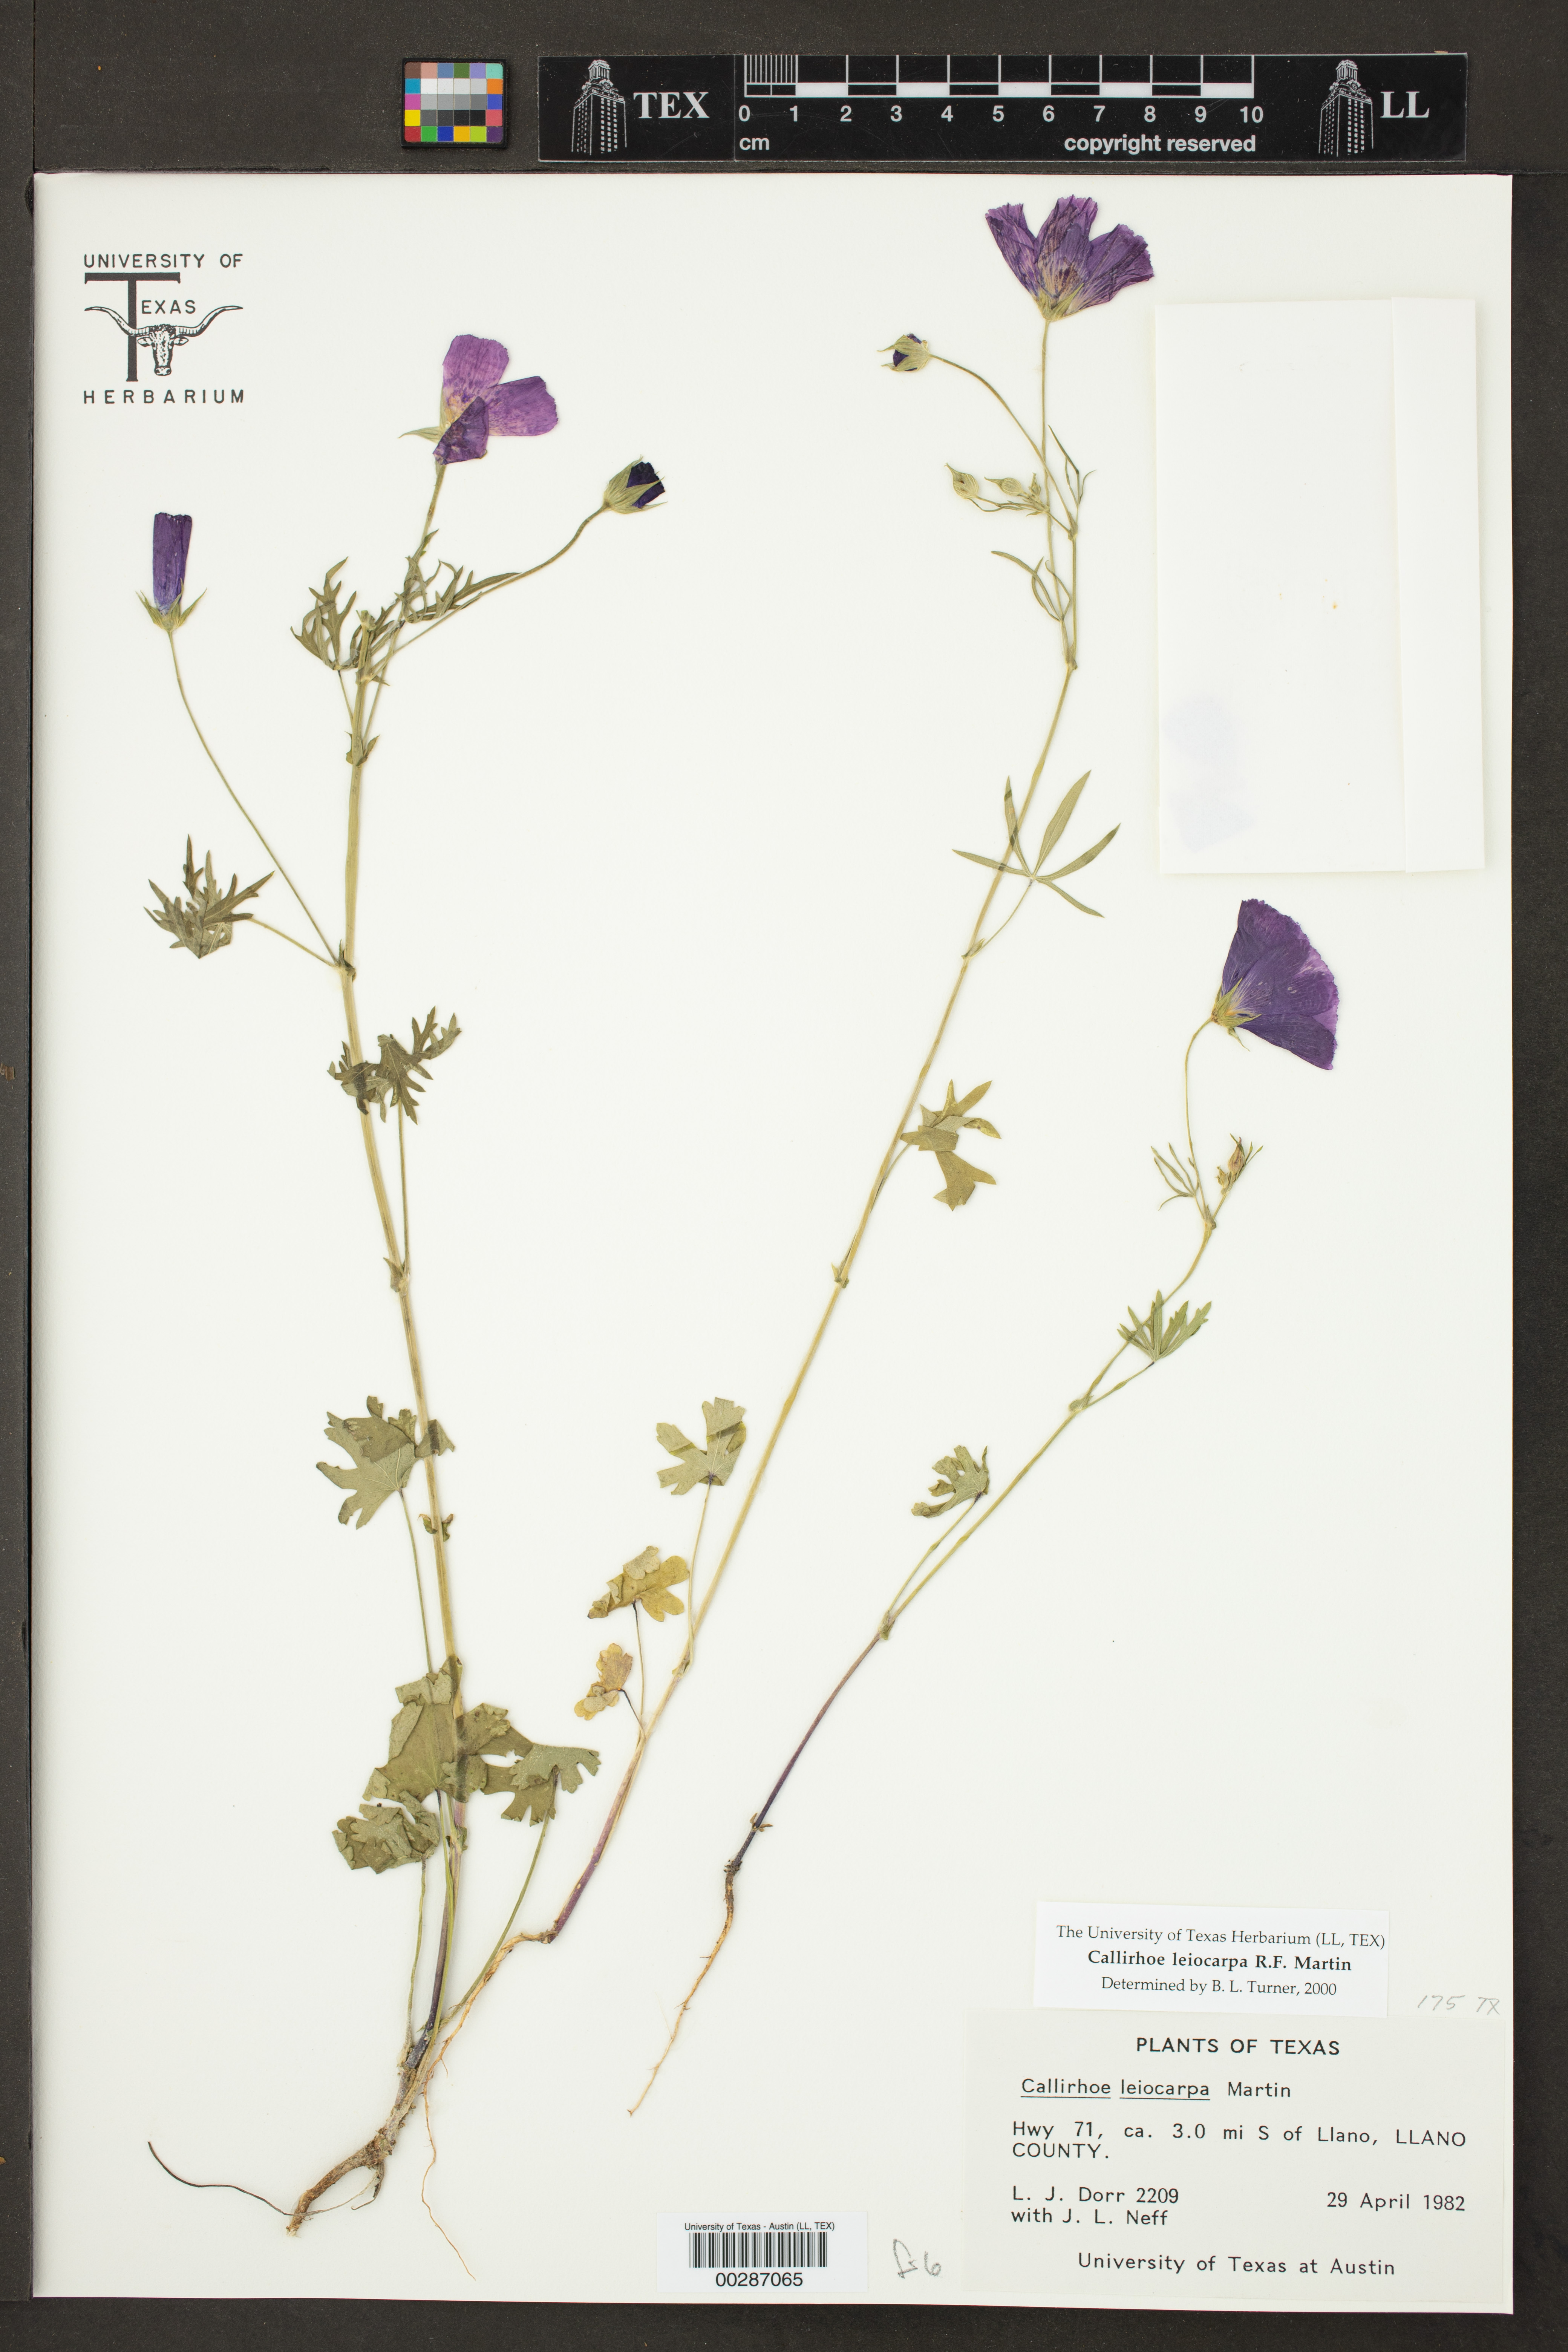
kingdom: Plantae
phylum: Tracheophyta
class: Magnoliopsida
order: Malvales
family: Malvaceae
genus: Callirhoe
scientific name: Callirhoe leiocarpa
